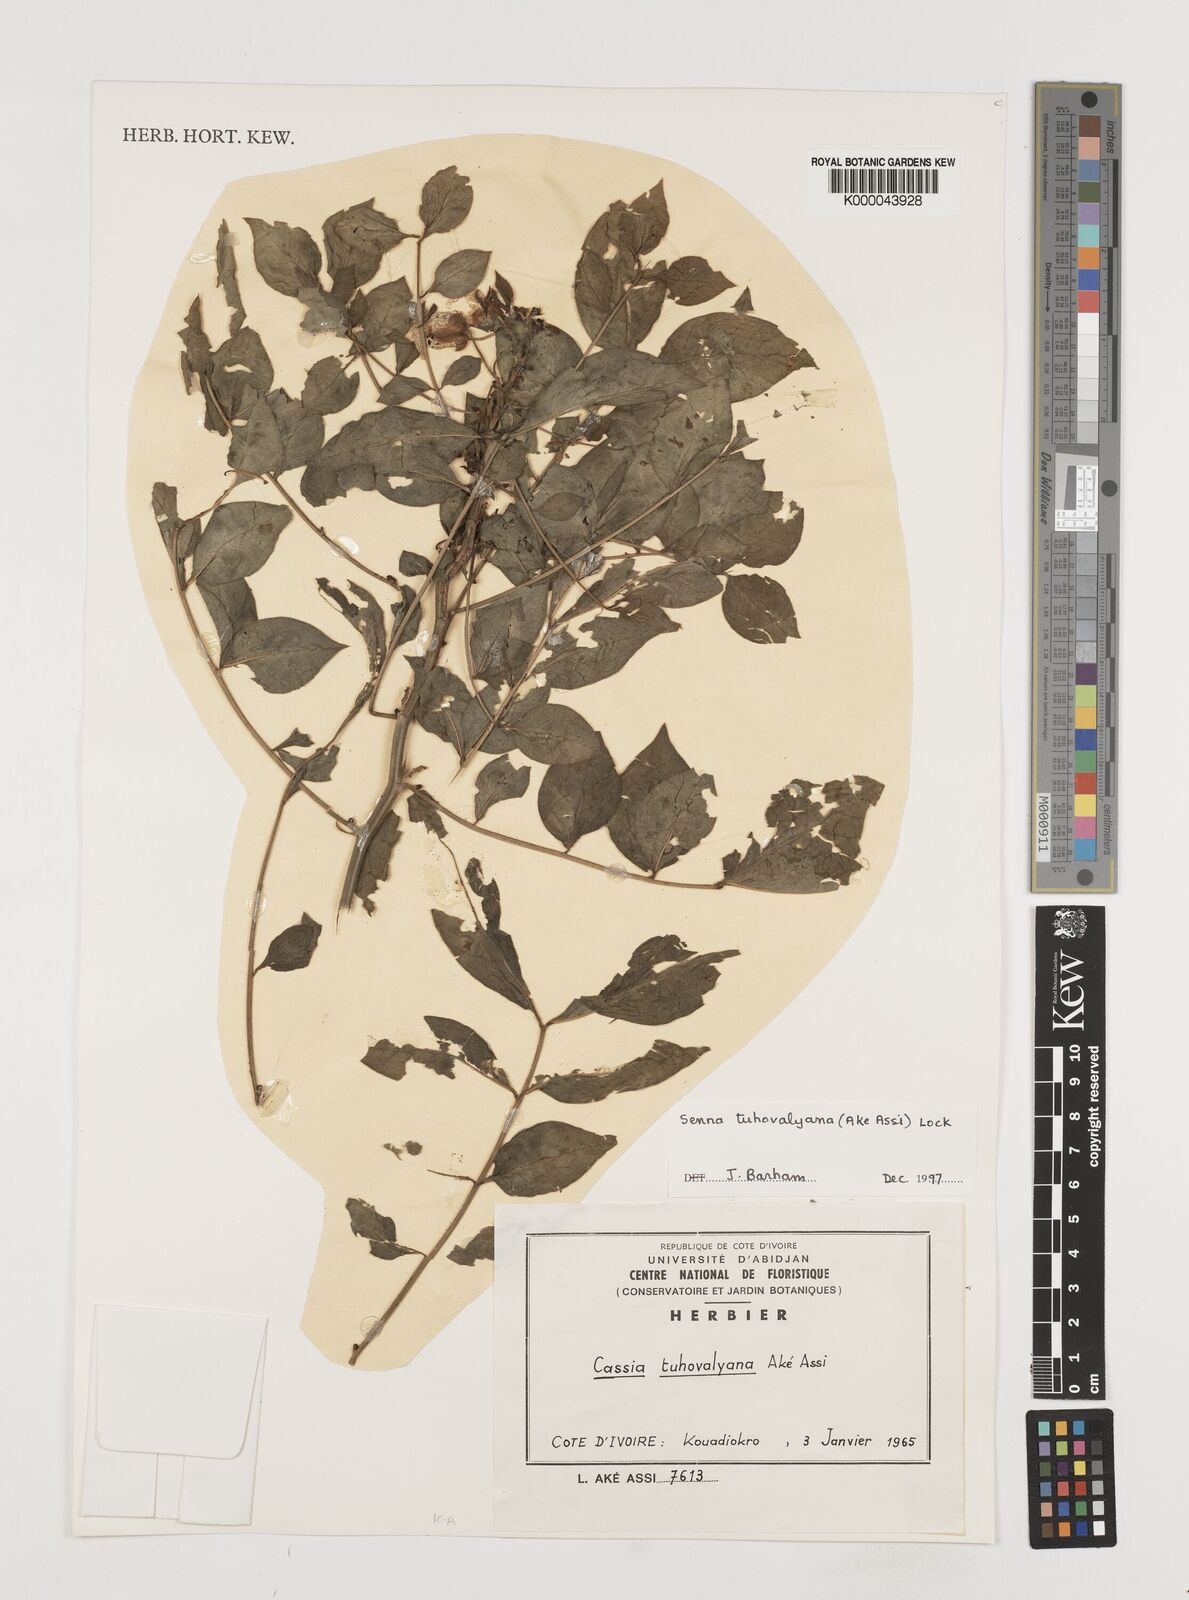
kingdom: Plantae
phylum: Tracheophyta
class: Magnoliopsida
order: Fabales
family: Fabaceae
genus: Senna
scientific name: Senna
